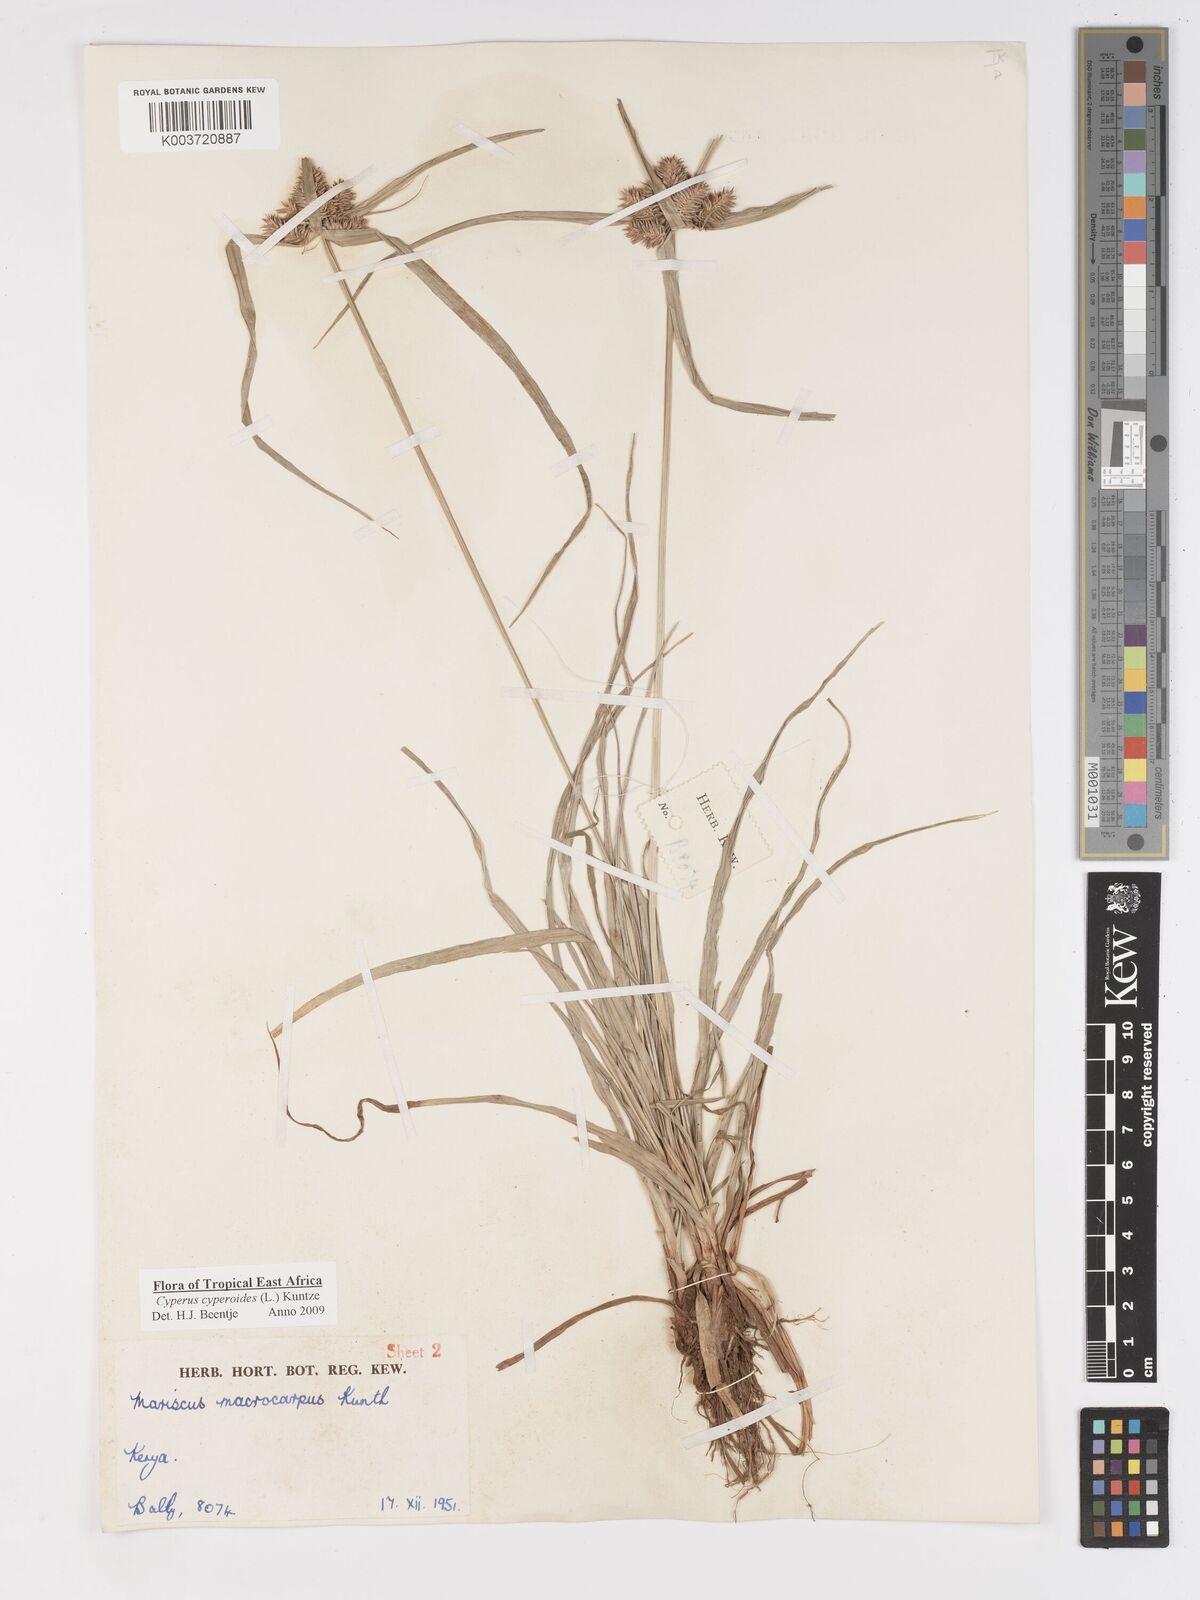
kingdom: Plantae
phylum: Tracheophyta
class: Liliopsida
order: Poales
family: Cyperaceae
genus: Cyperus
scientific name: Cyperus macrocarpus
